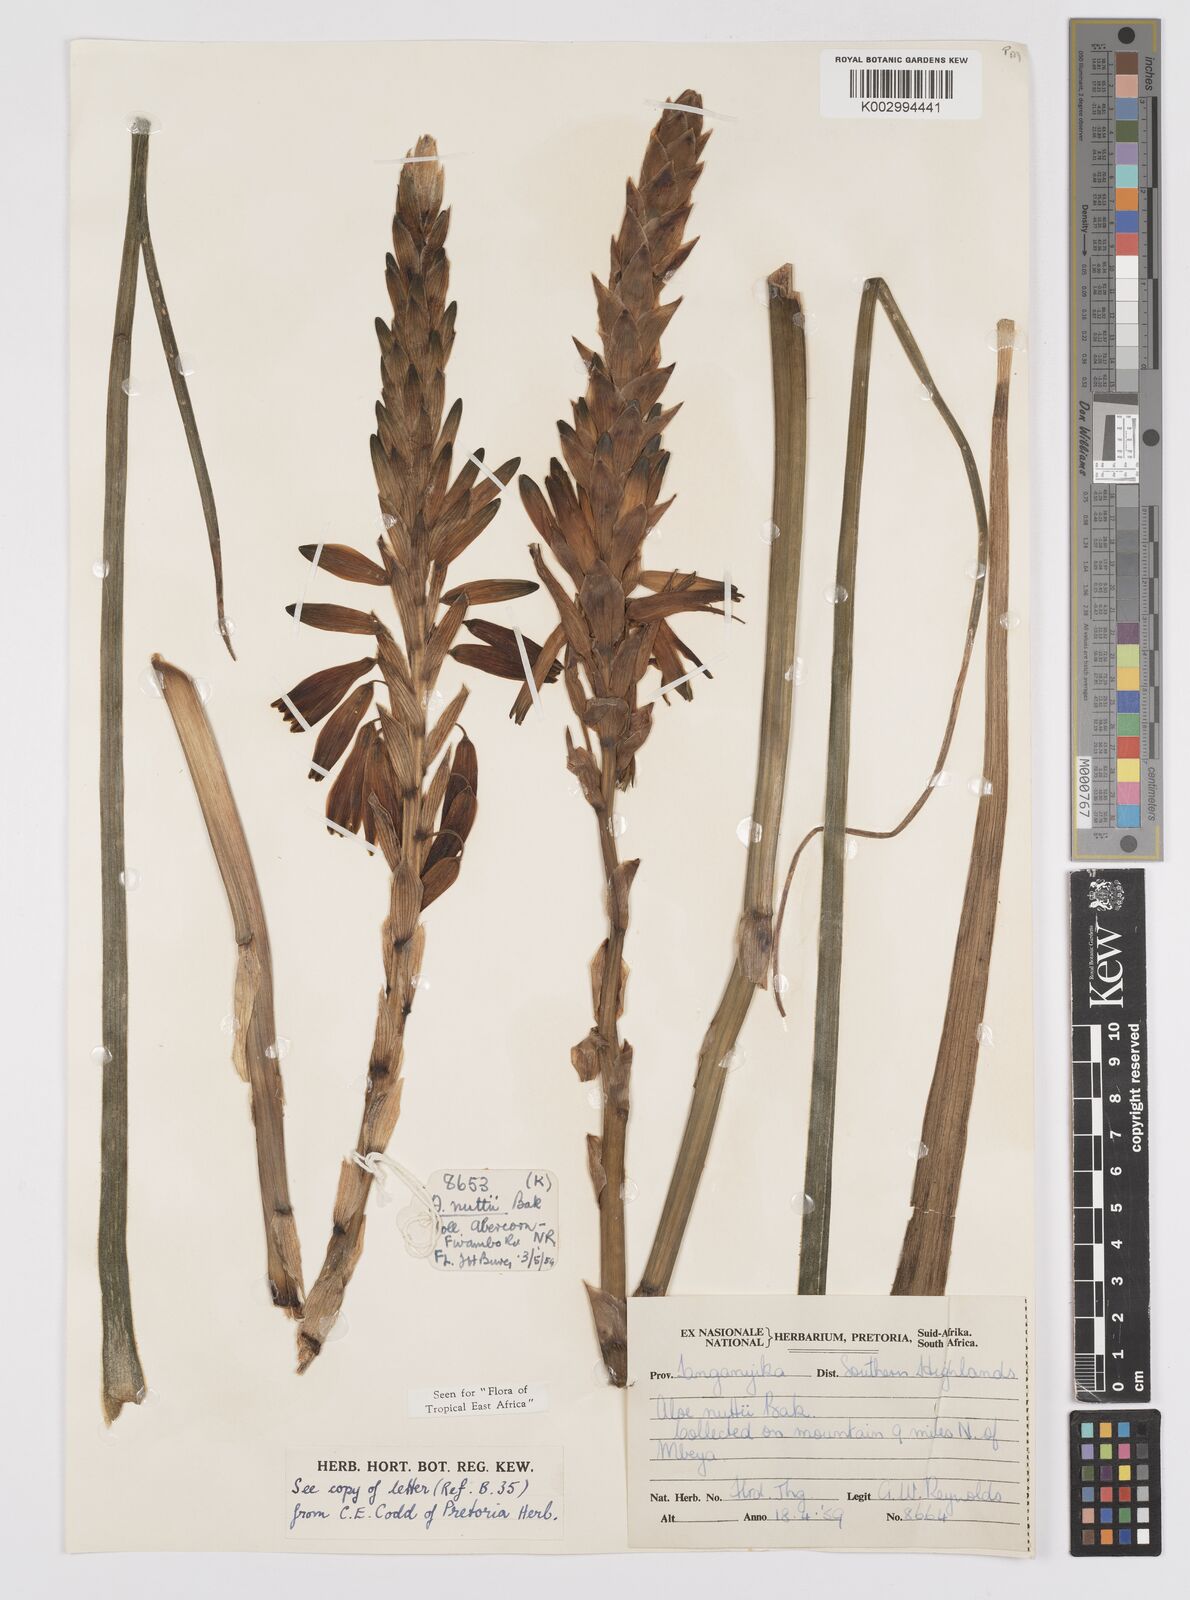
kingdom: Plantae
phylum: Tracheophyta
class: Liliopsida
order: Asparagales
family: Asphodelaceae
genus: Aloe
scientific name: Aloe nuttii
